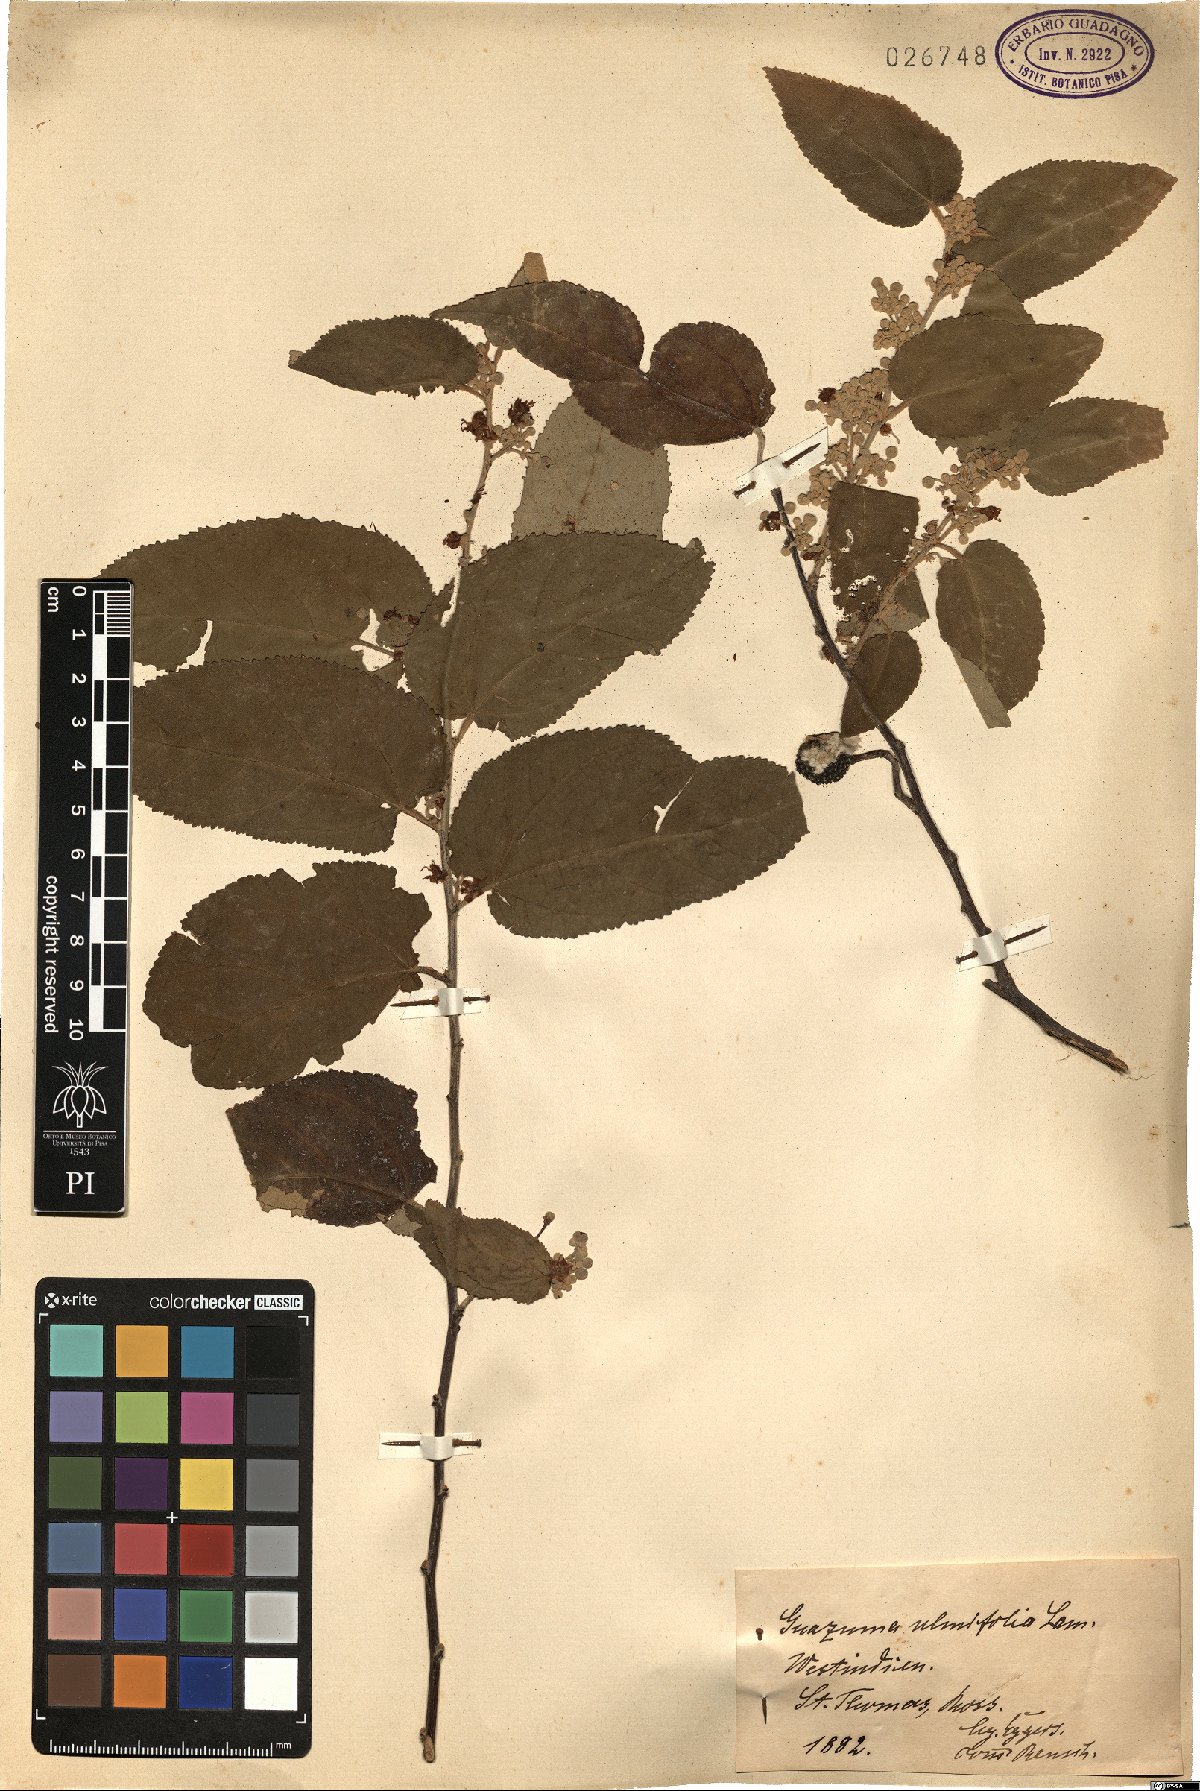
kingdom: Plantae
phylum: Tracheophyta
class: Magnoliopsida
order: Malvales
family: Malvaceae
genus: Guazuma
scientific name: Guazuma ulmifolia
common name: Bastard-cedar
